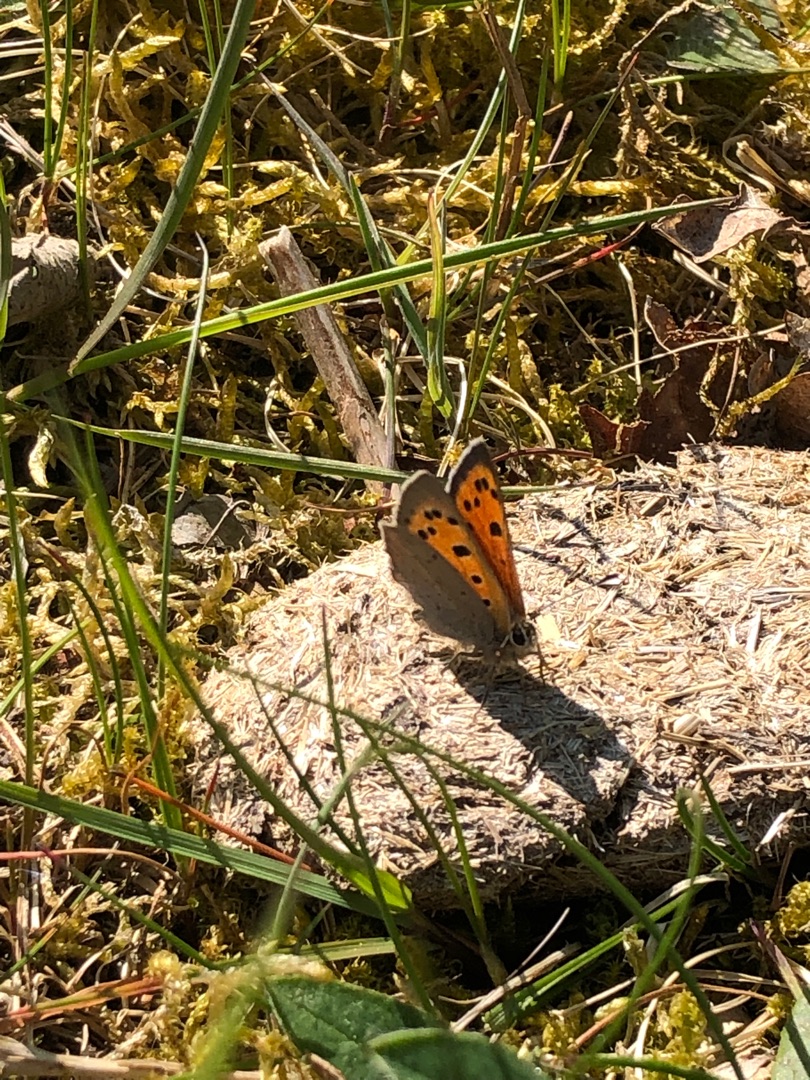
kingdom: Animalia
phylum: Arthropoda
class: Insecta
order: Lepidoptera
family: Lycaenidae
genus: Lycaena
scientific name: Lycaena phlaeas
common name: Lille ildfugl
